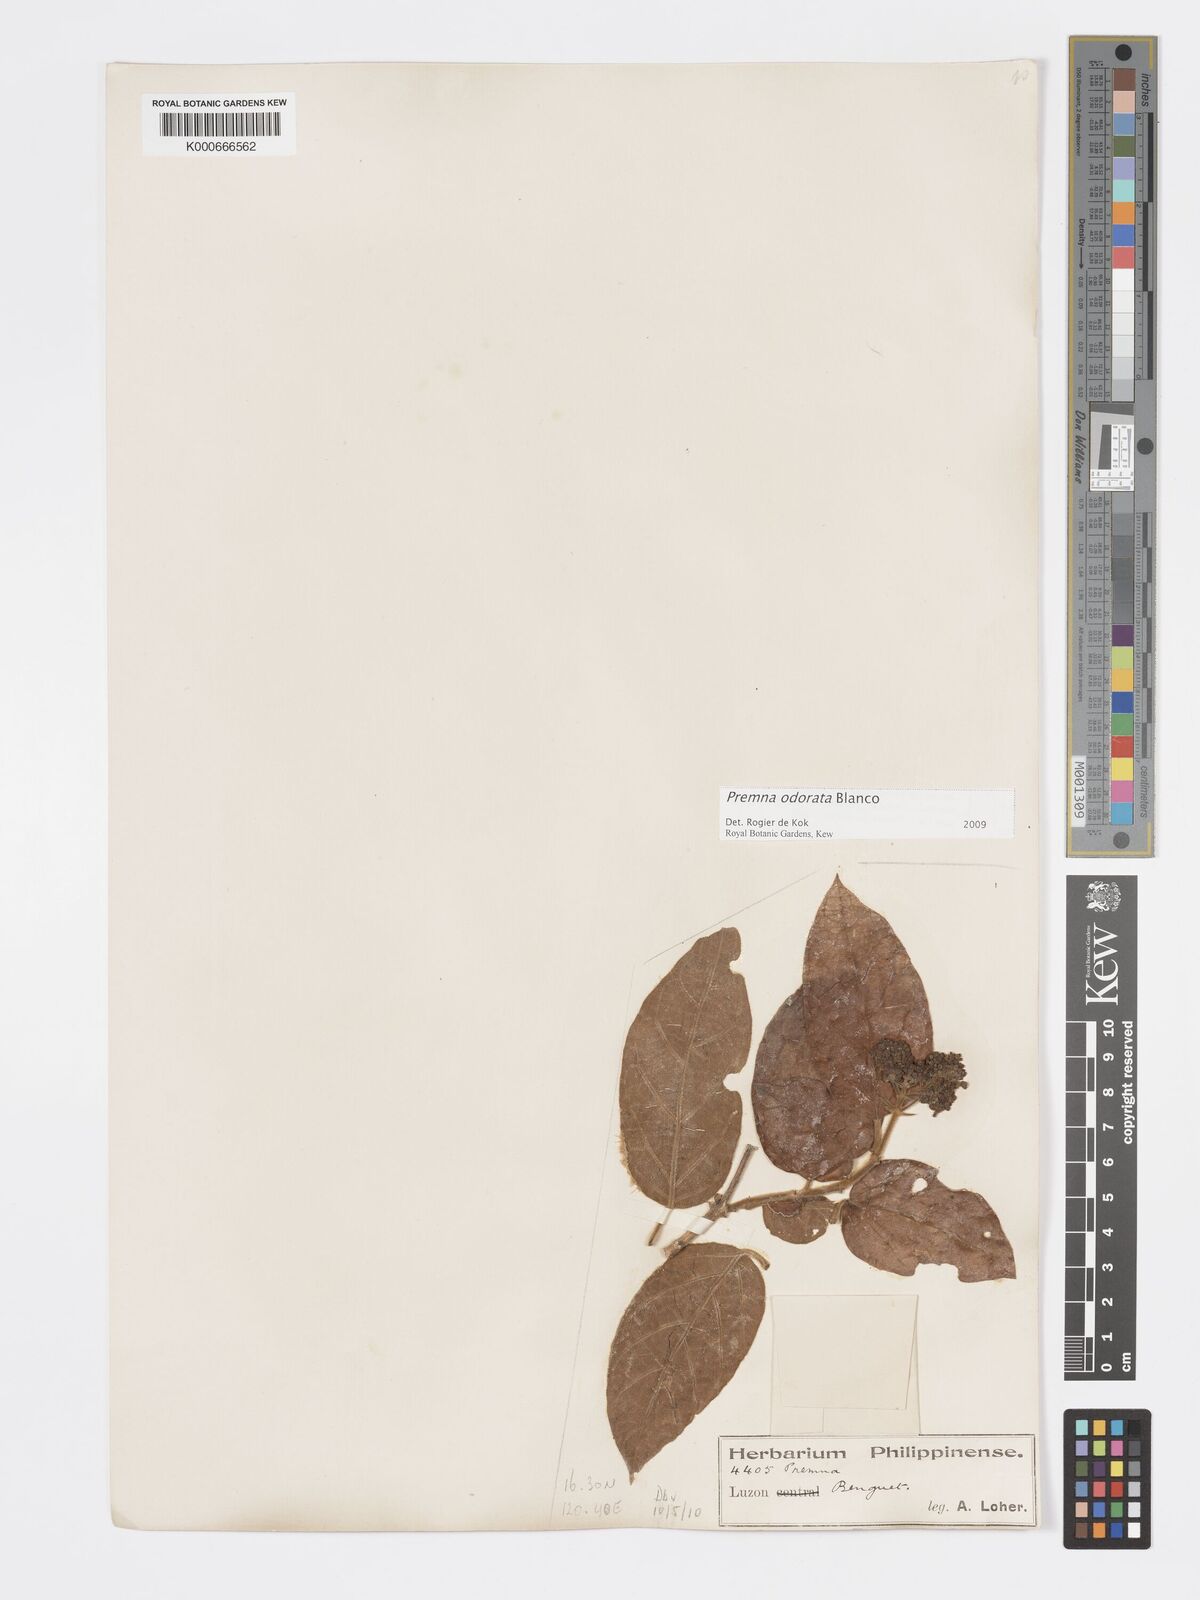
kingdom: Plantae
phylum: Tracheophyta
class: Magnoliopsida
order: Lamiales
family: Lamiaceae
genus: Premna
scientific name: Premna odorata
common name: Fragrant premna
